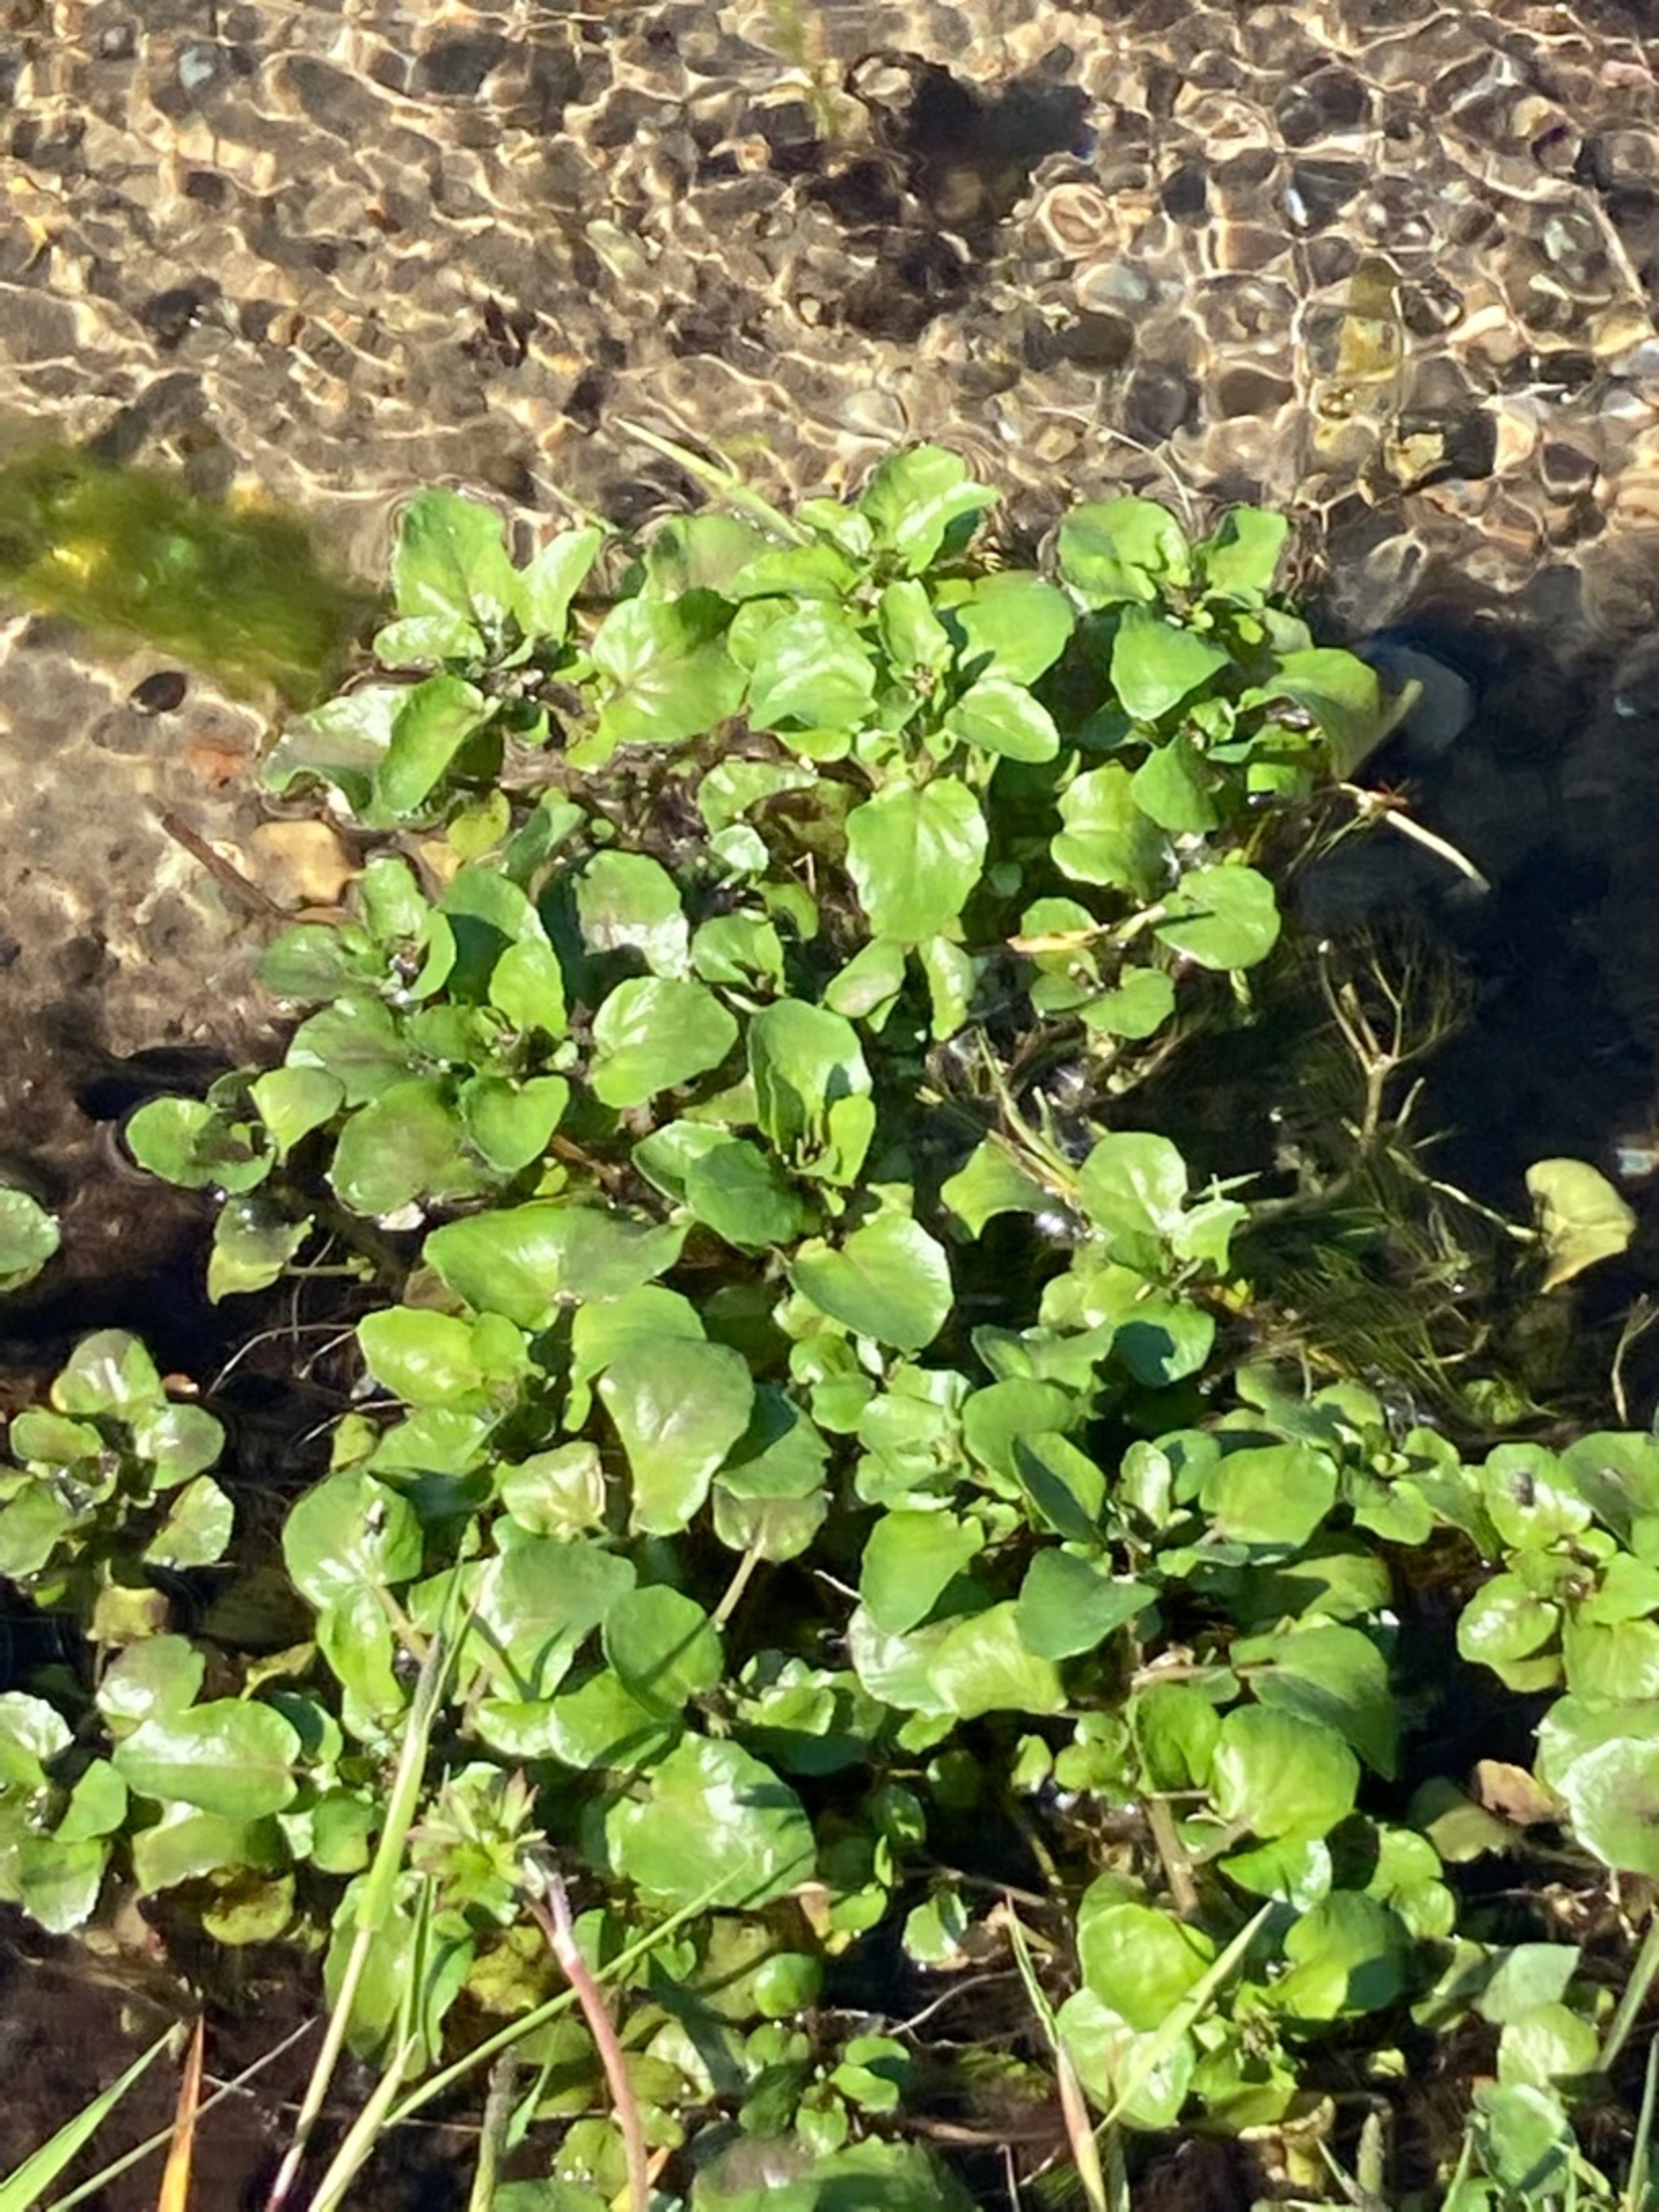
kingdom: Plantae
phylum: Tracheophyta
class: Magnoliopsida
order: Brassicales
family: Brassicaceae
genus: Nasturtium
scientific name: Nasturtium officinale
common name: Tykskulpet brøndkarse
